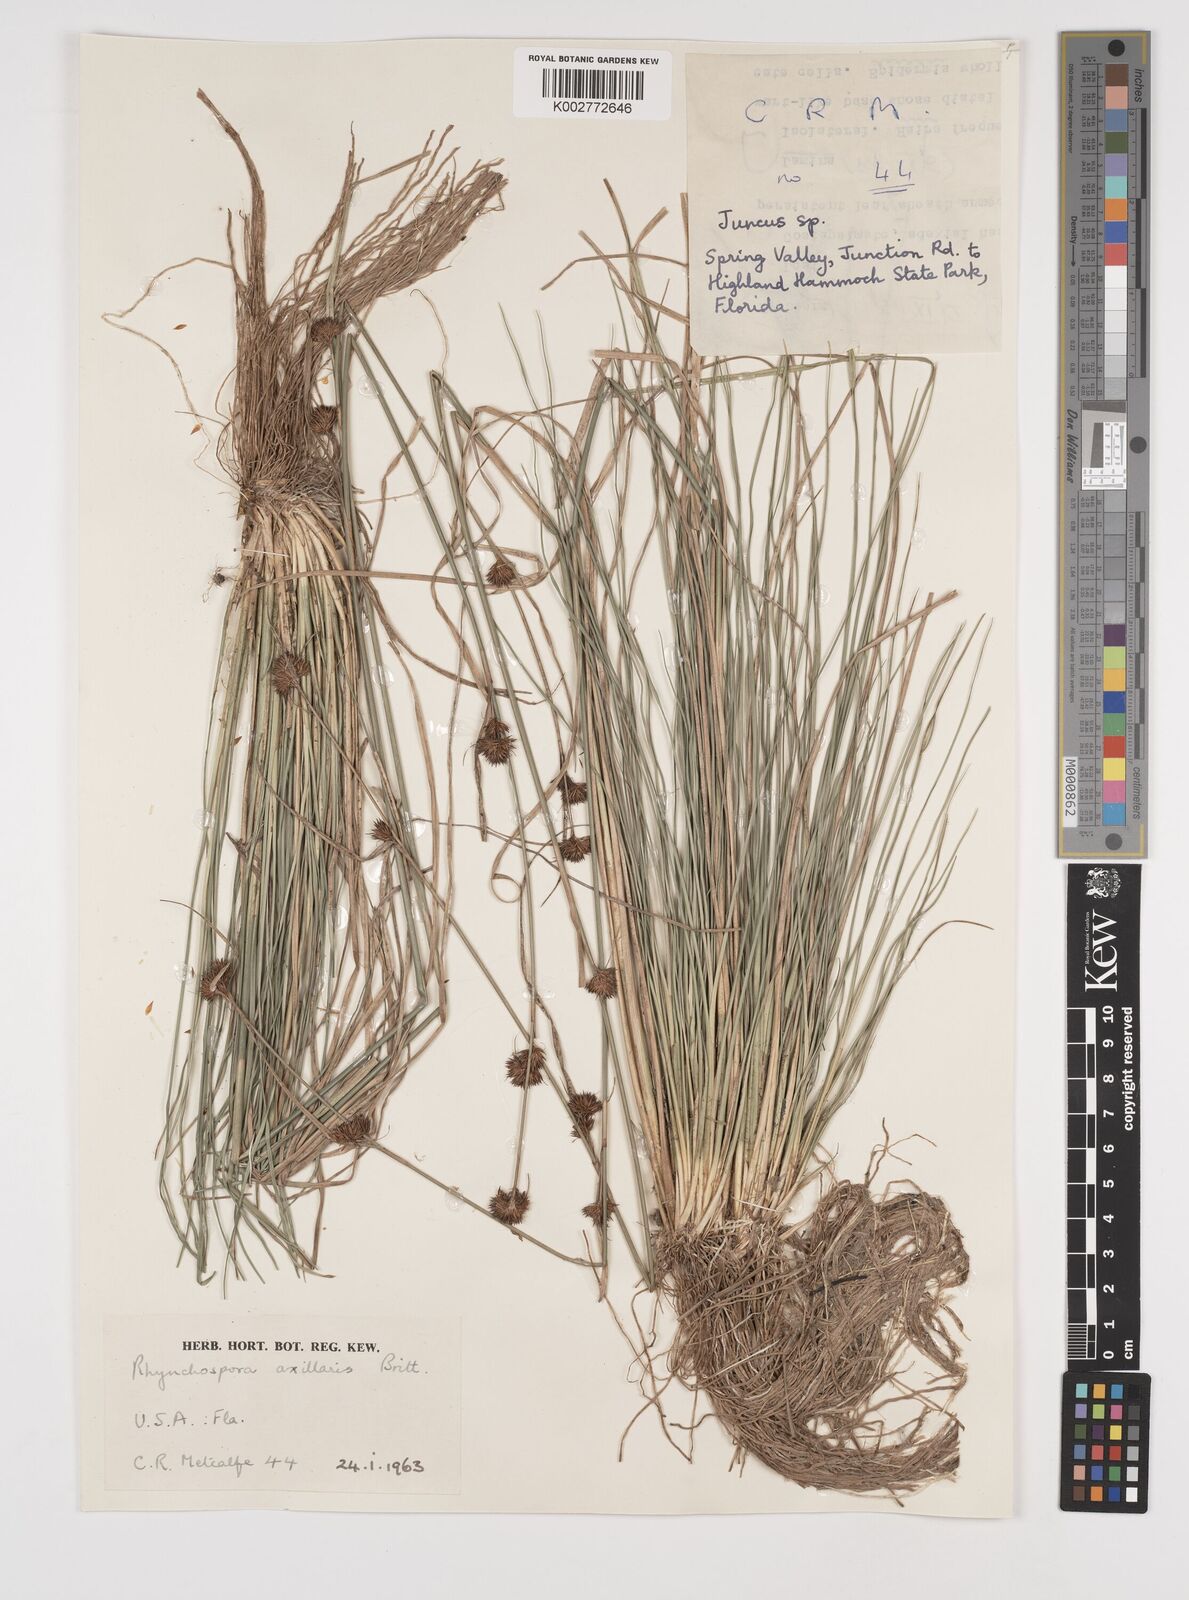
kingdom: Plantae
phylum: Tracheophyta
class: Liliopsida
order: Poales
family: Cyperaceae
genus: Rhynchospora
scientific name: Rhynchospora glomerata
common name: Cluster beak sedge
